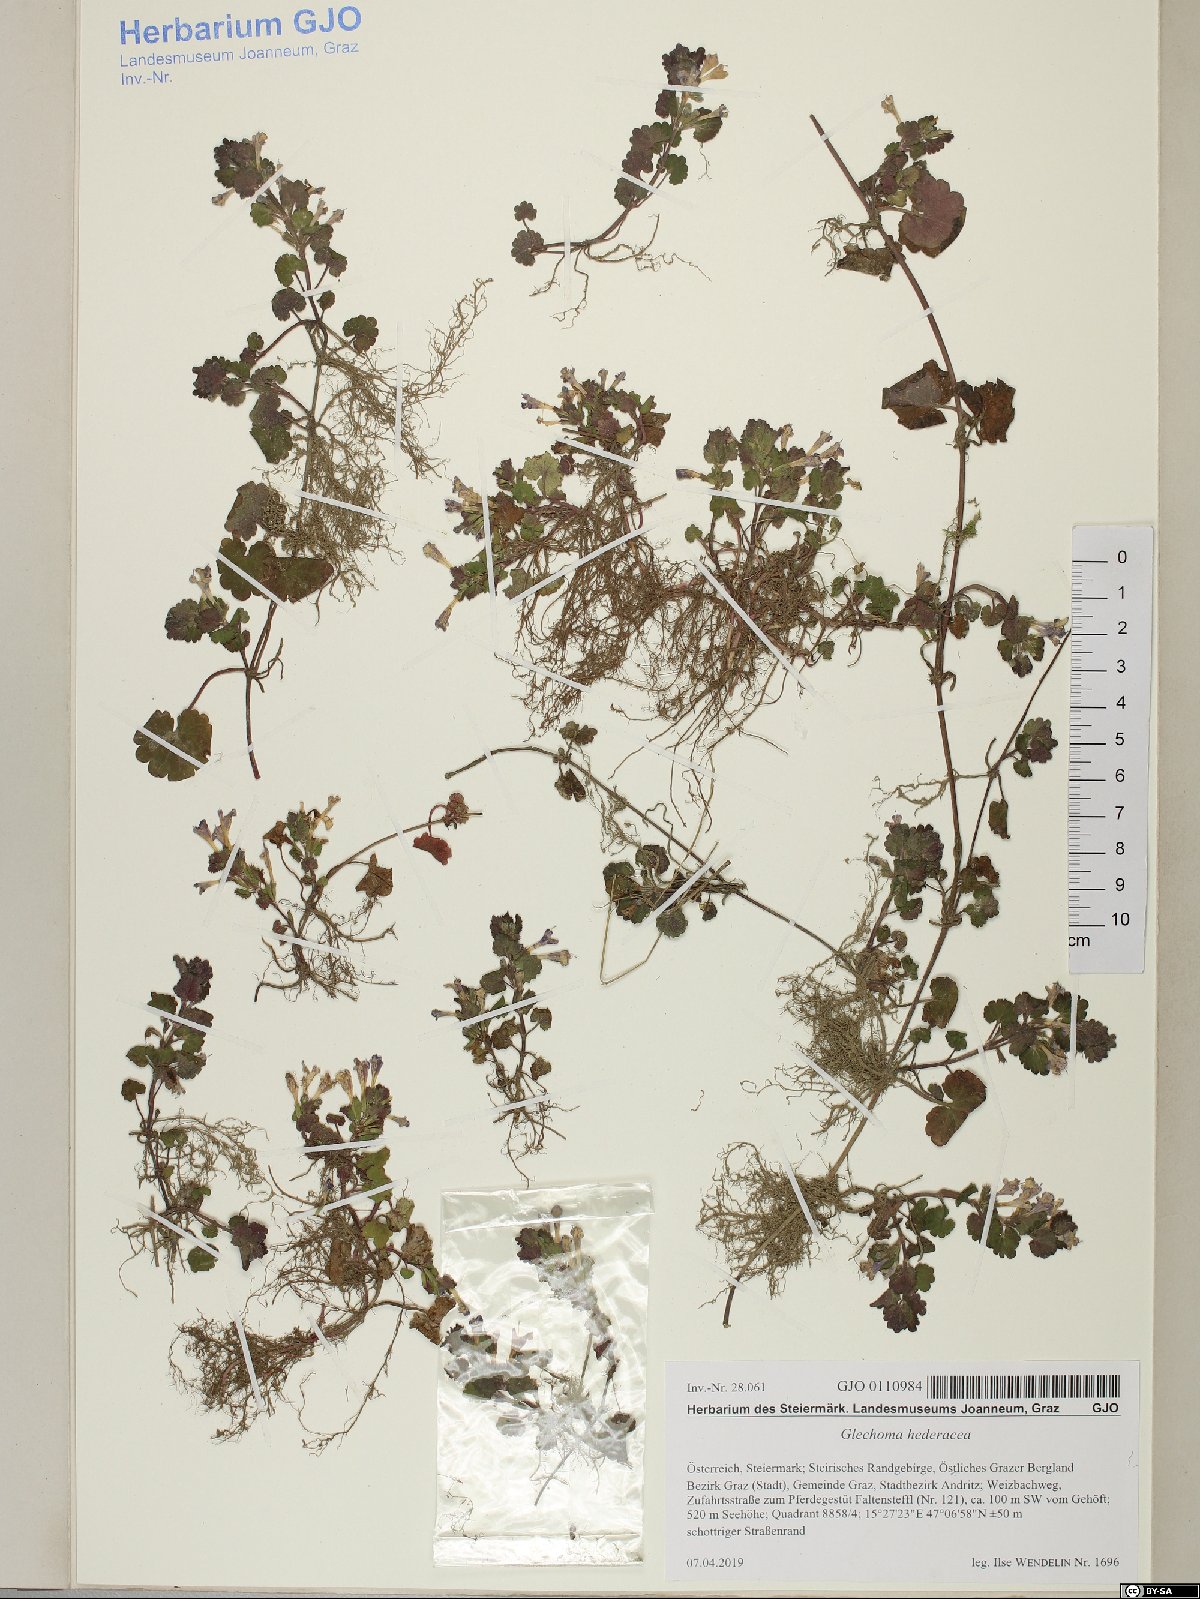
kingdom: Plantae
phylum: Tracheophyta
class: Magnoliopsida
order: Lamiales
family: Lamiaceae
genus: Glechoma
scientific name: Glechoma hederacea
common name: Ground ivy
